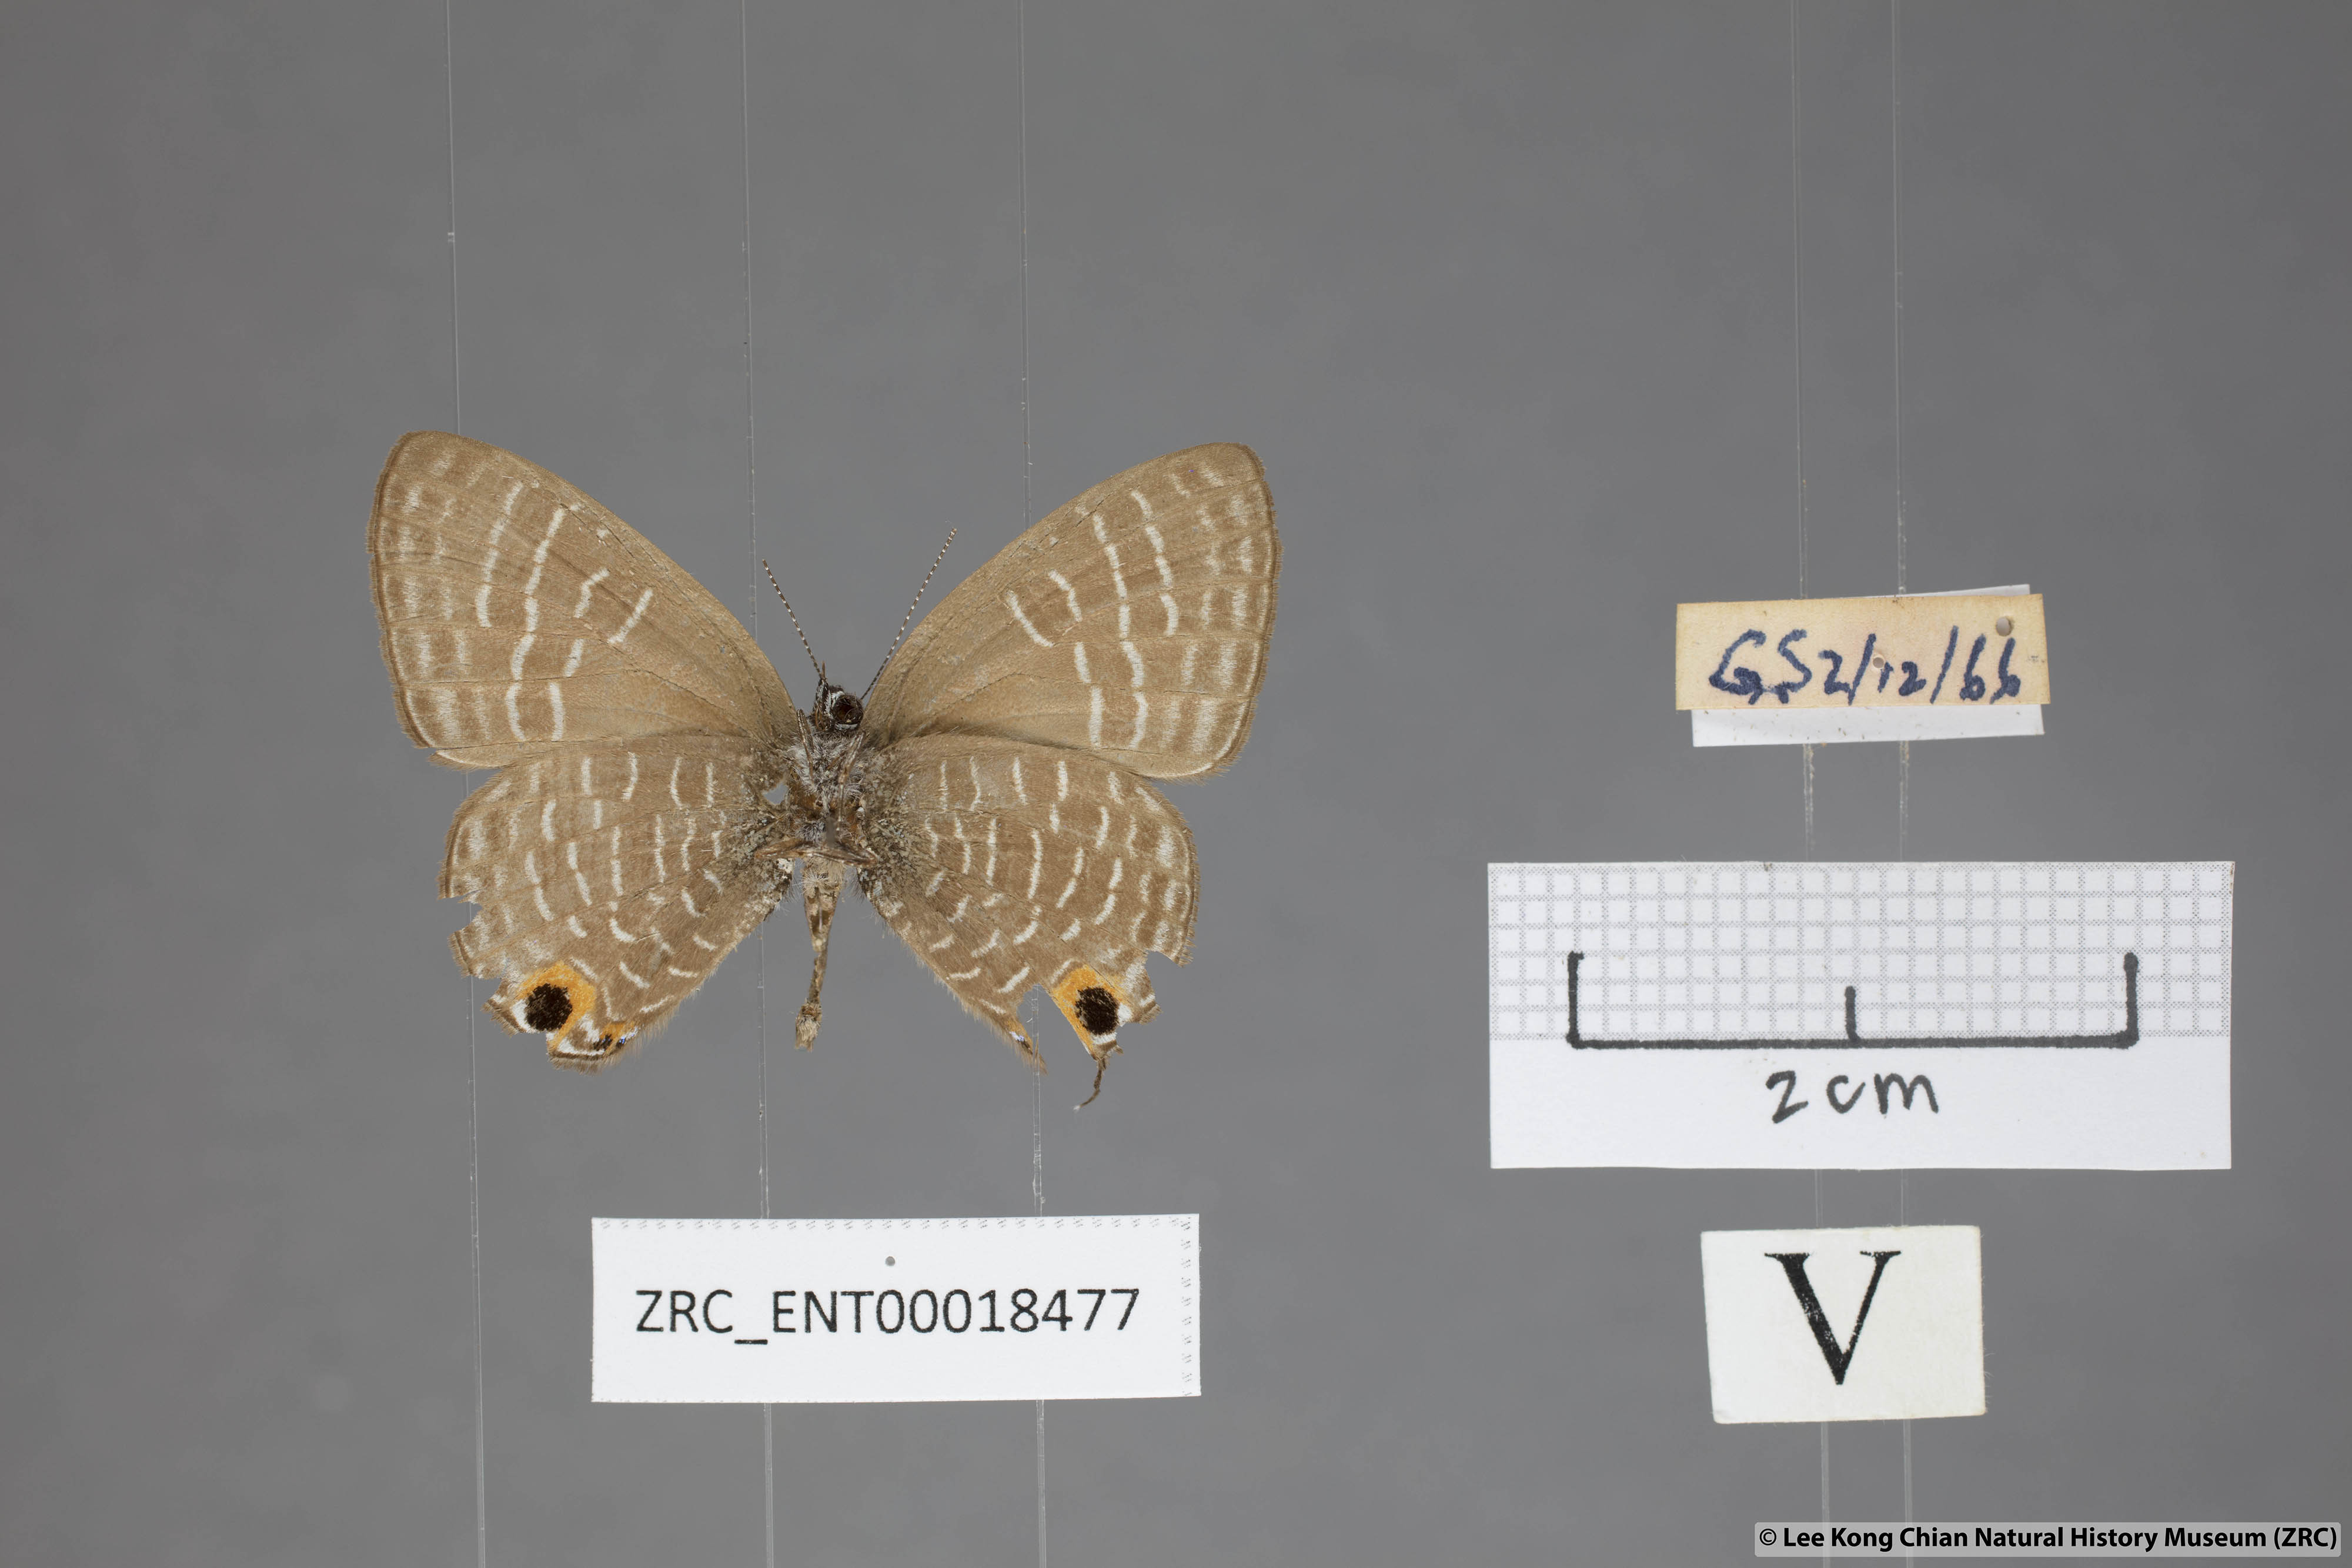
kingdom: Animalia
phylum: Arthropoda
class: Insecta
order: Lepidoptera
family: Lycaenidae
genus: Nacaduba
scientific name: Nacaduba solta
